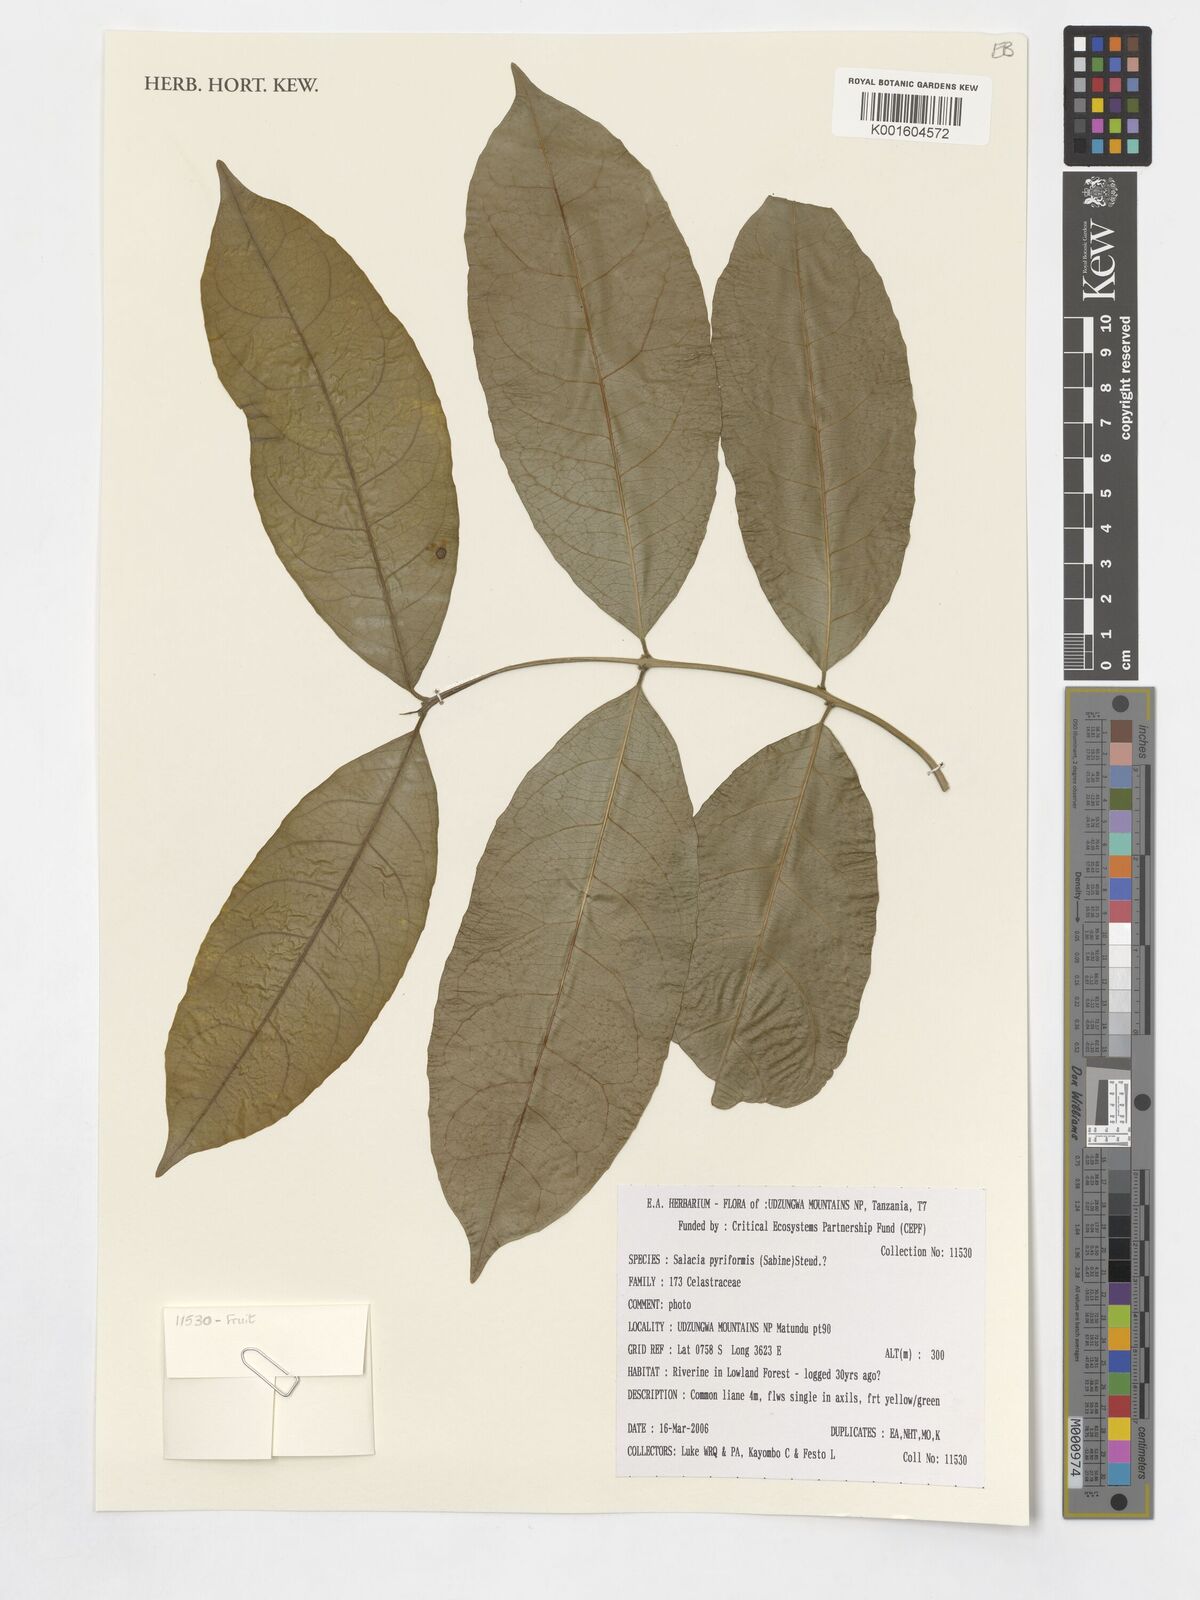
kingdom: Plantae
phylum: Tracheophyta
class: Magnoliopsida
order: Celastrales
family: Celastraceae
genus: Salacia
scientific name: Salacia pyriformis
